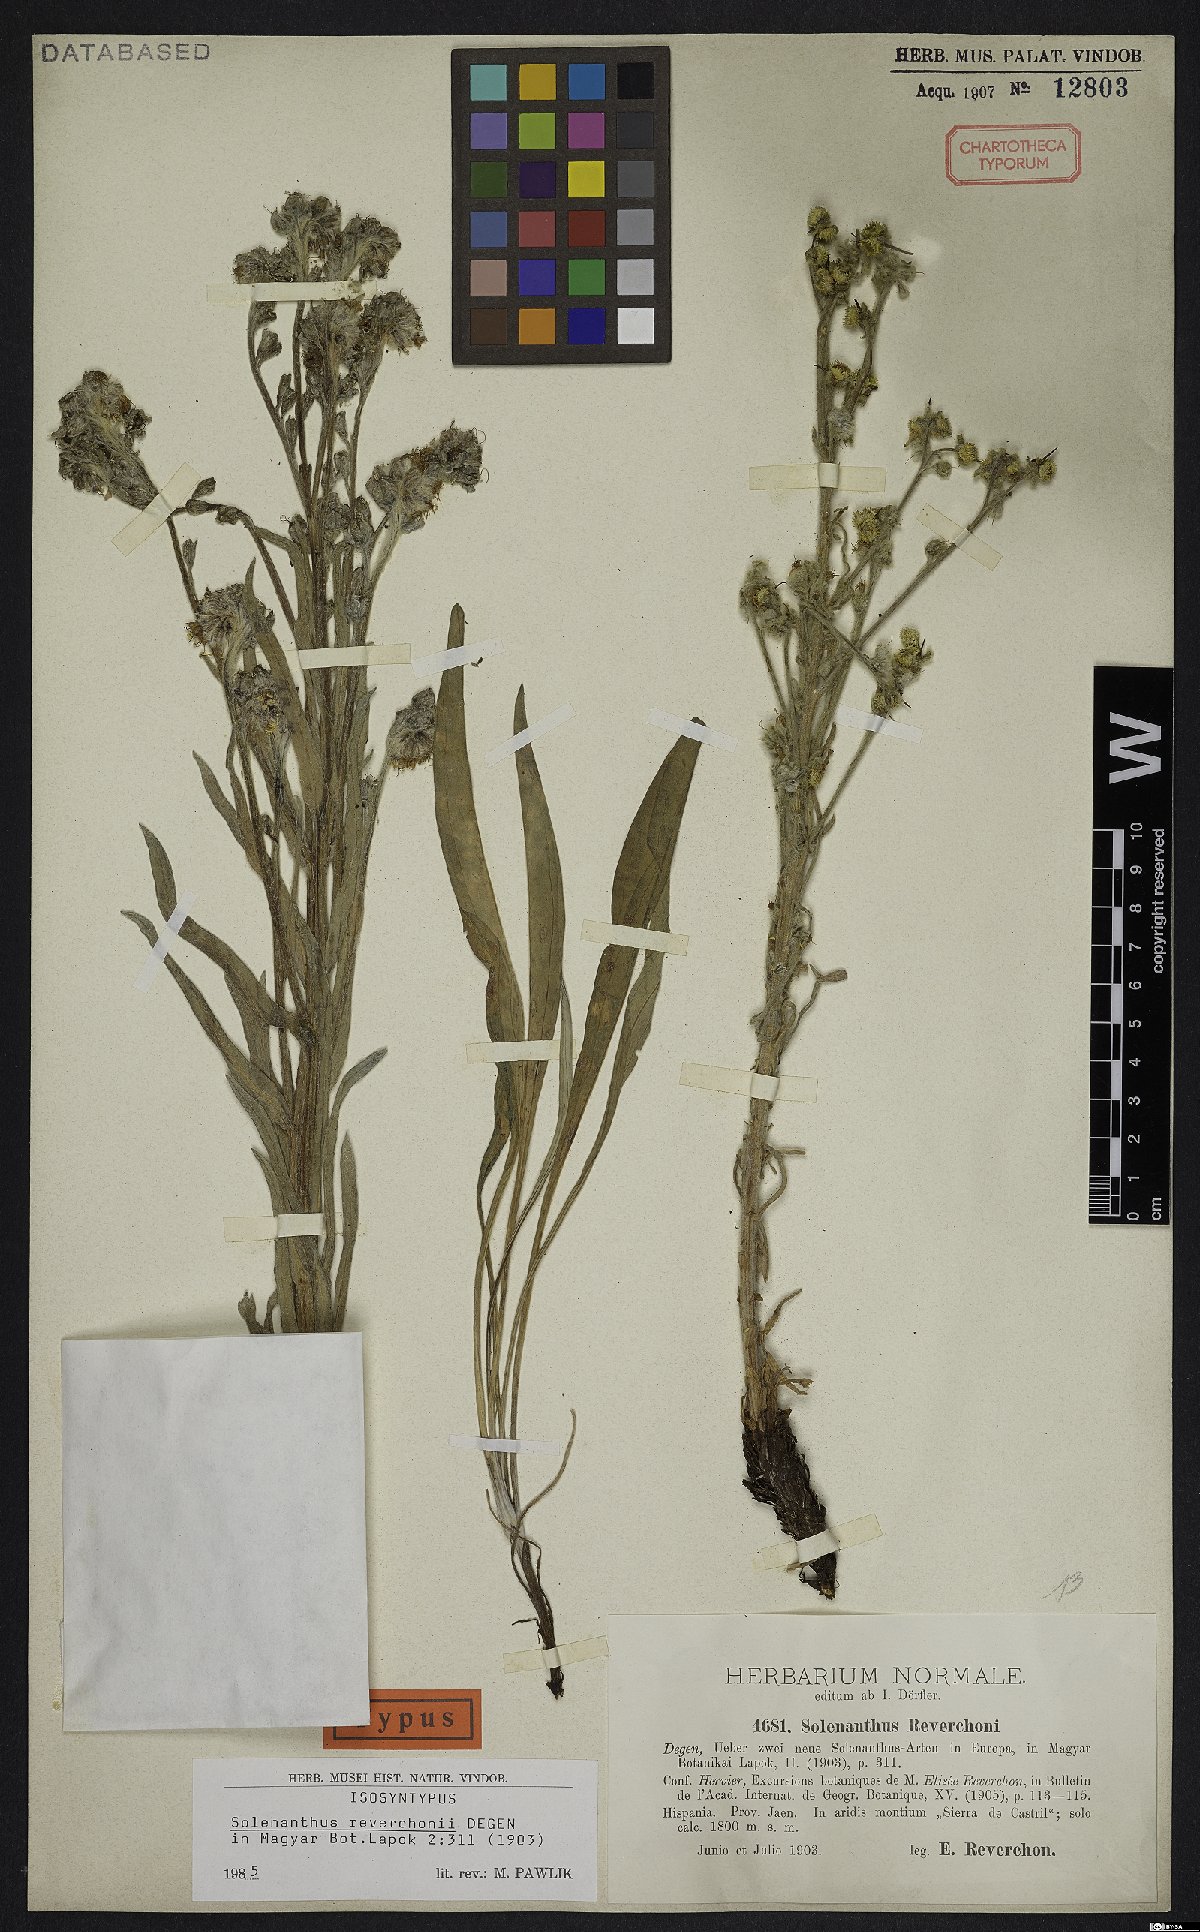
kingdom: Plantae
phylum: Tracheophyta
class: Magnoliopsida
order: Boraginales
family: Boraginaceae
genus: Solenanthus
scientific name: Solenanthus reverchonii
